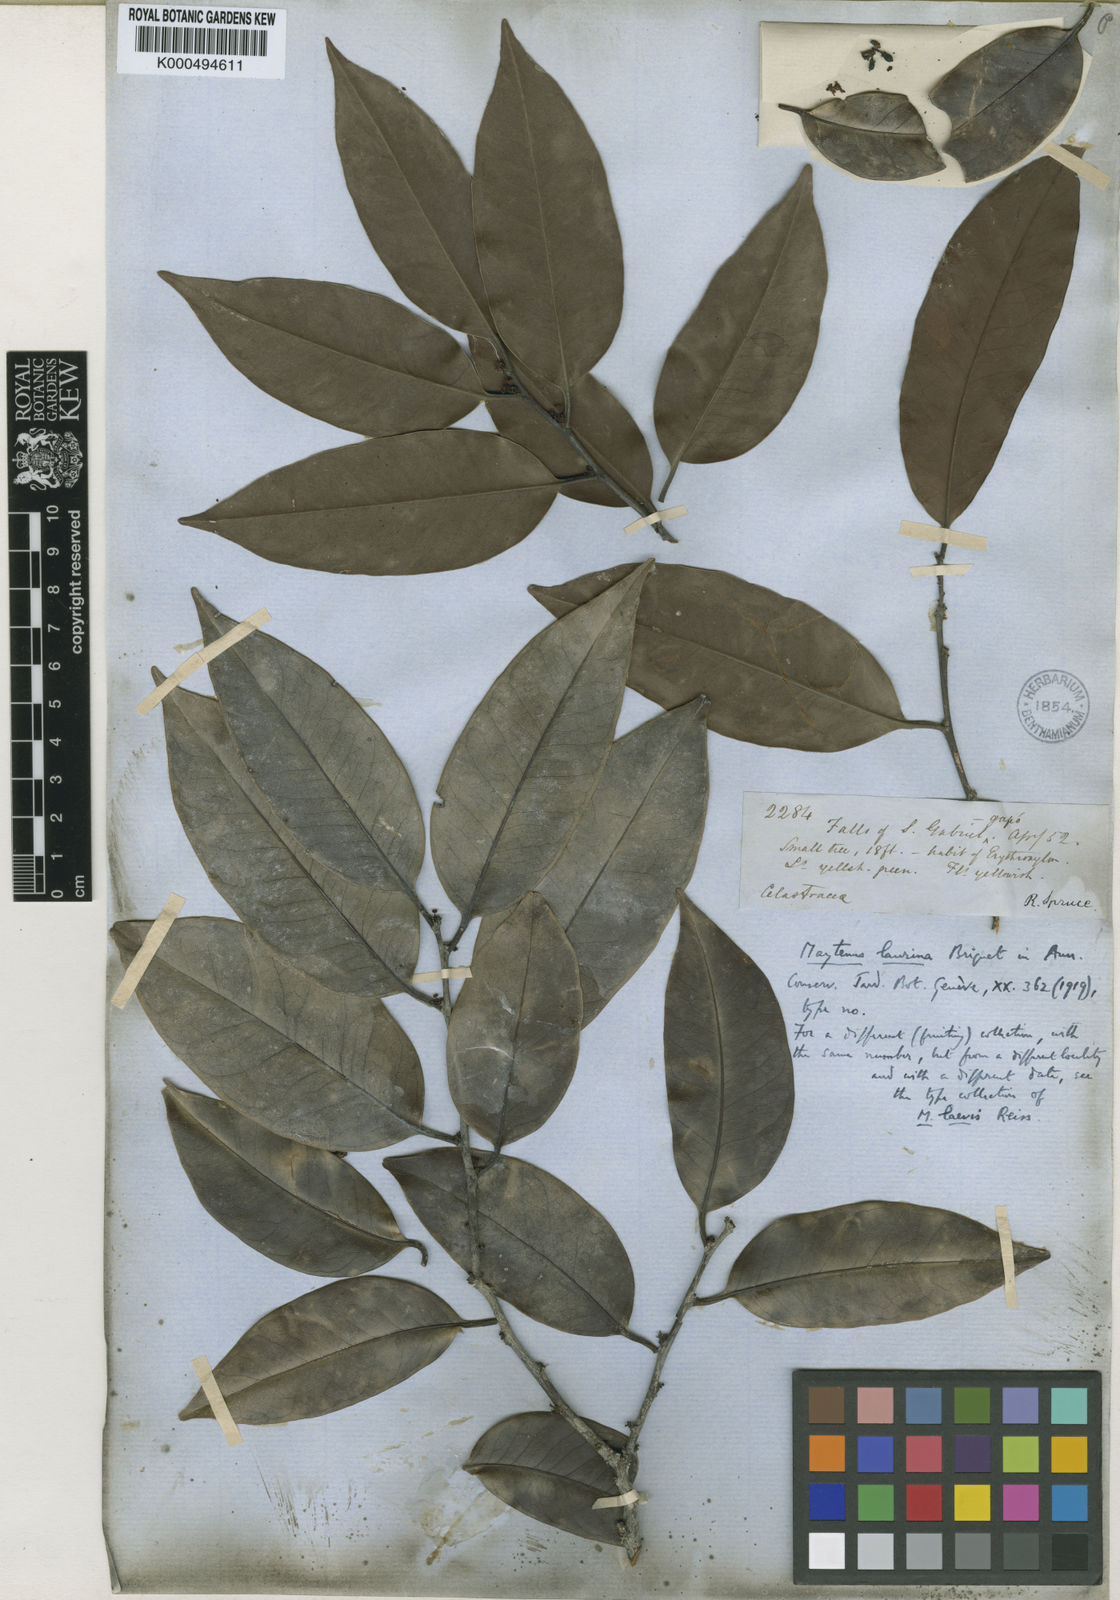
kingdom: Plantae
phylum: Tracheophyta
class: Magnoliopsida
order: Celastrales
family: Celastraceae
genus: Monteverdia
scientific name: Monteverdia laurina
